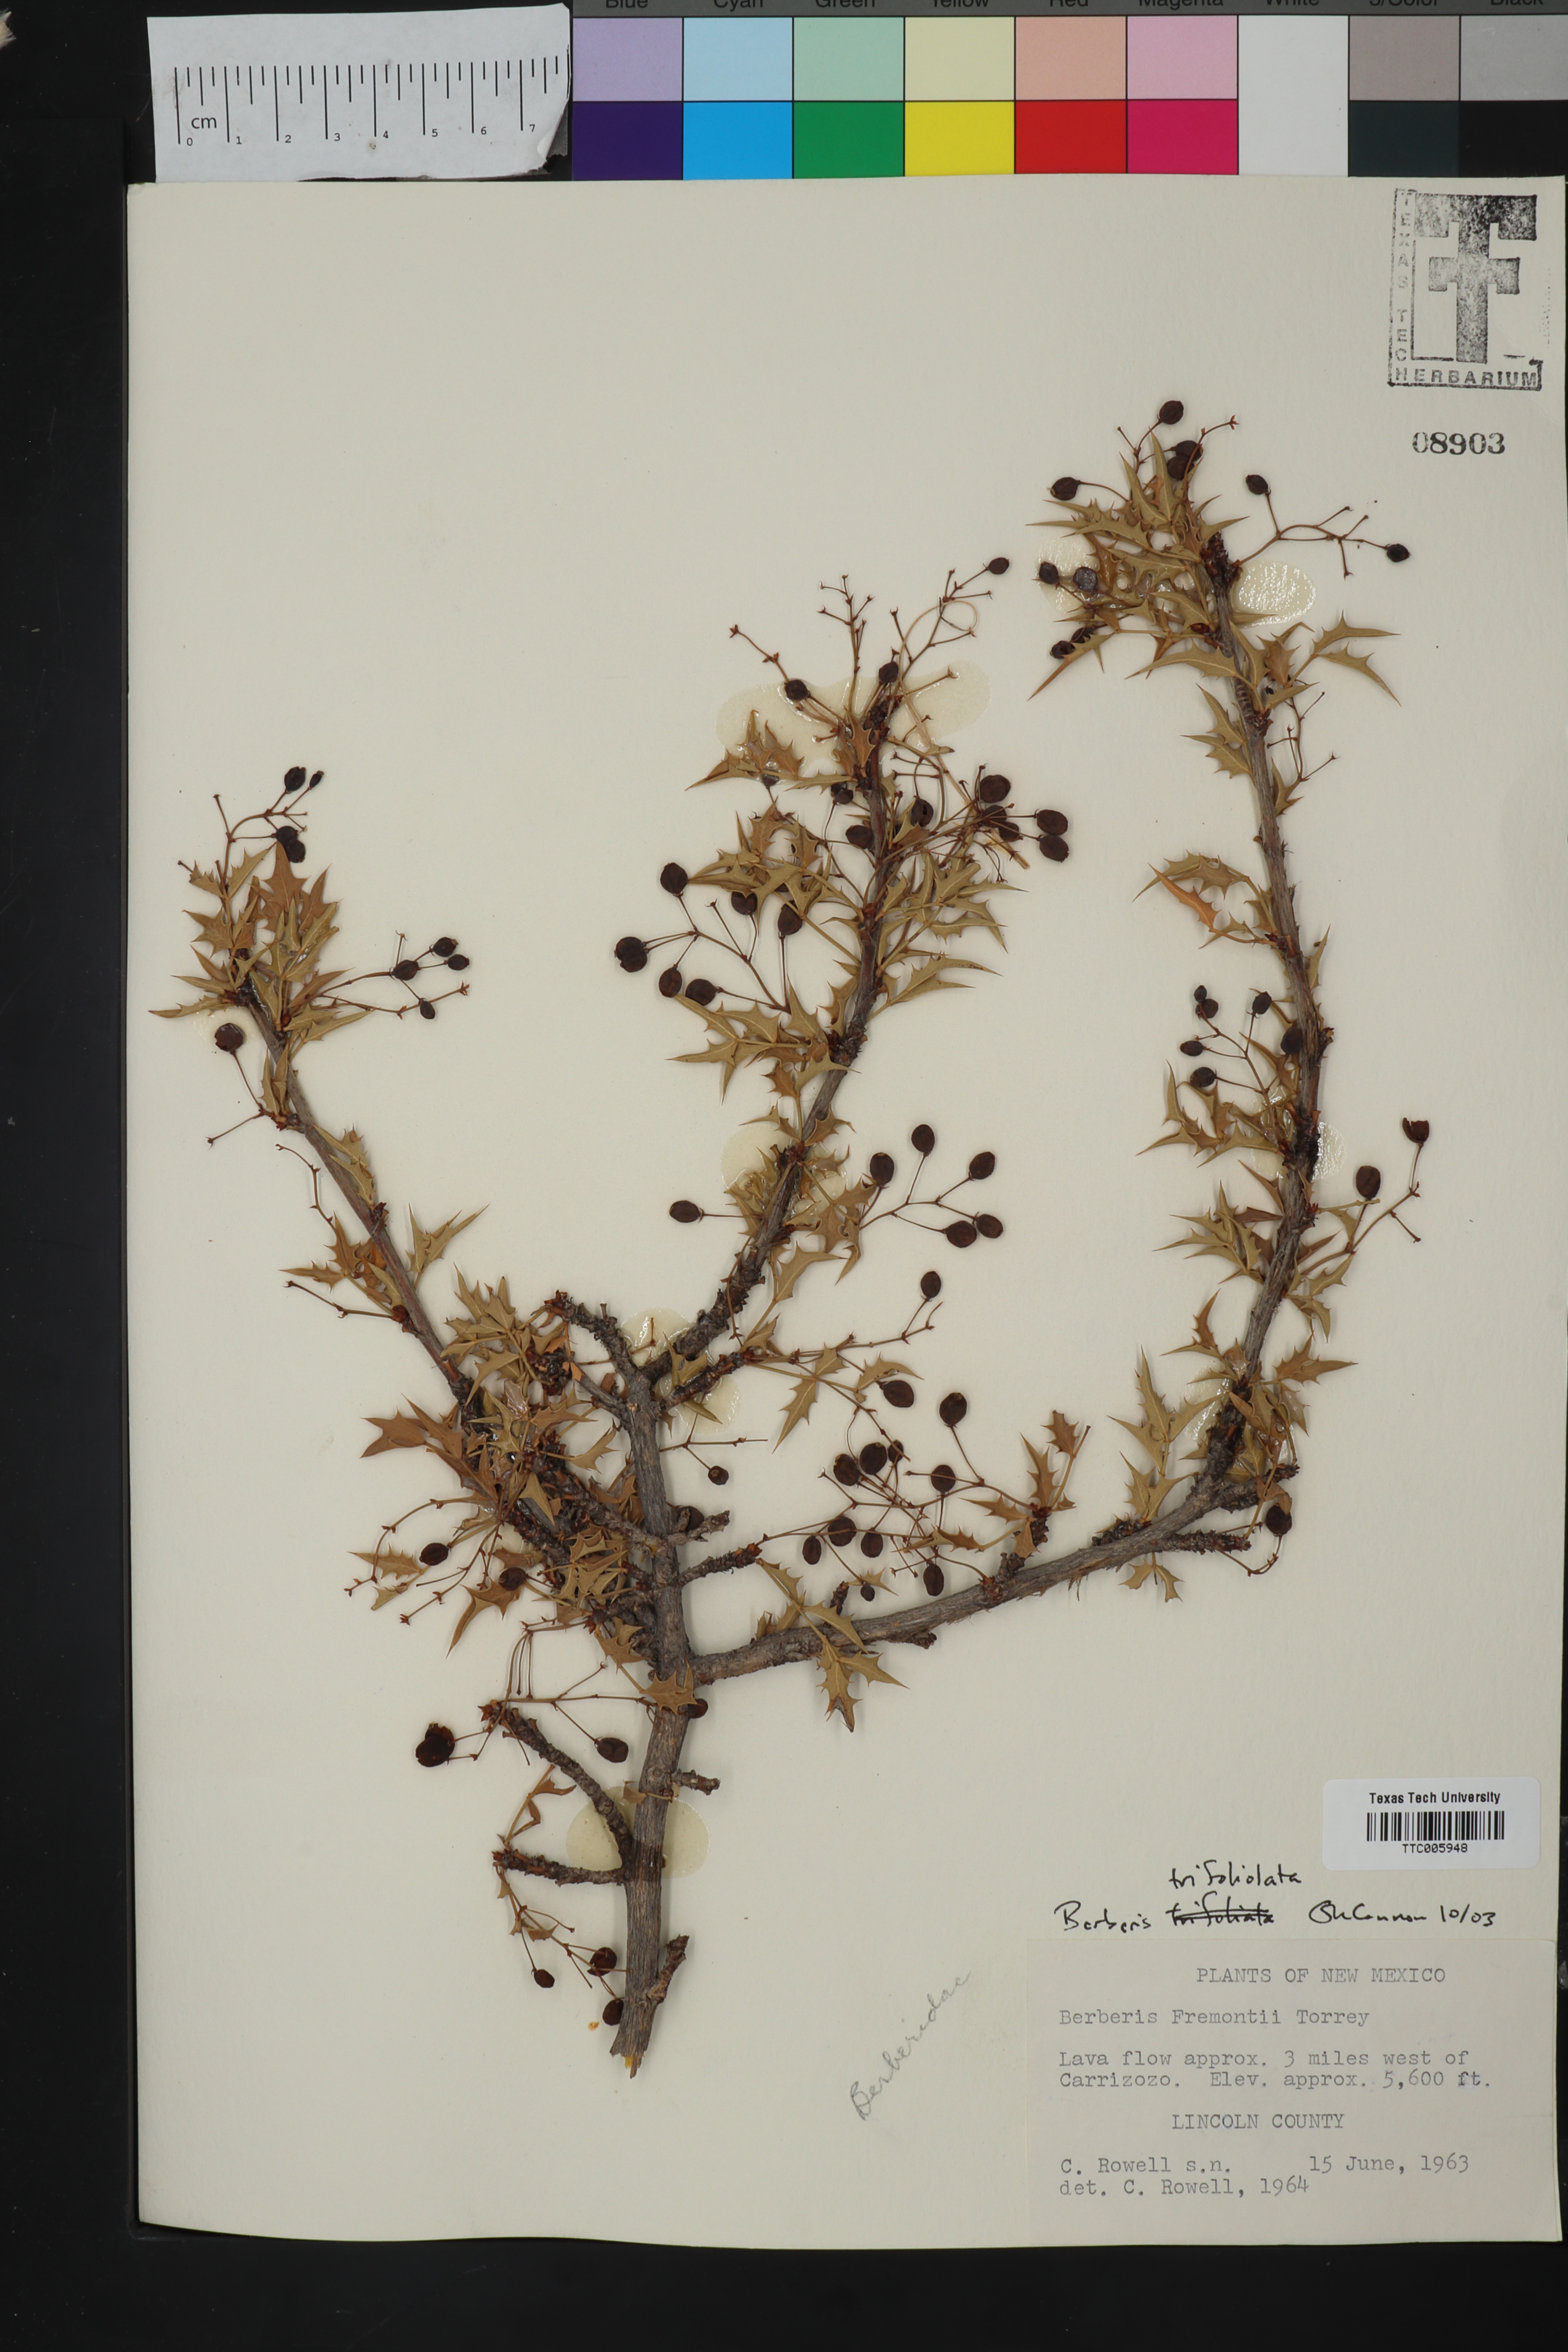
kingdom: Plantae
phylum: Tracheophyta
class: Magnoliopsida
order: Ranunculales
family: Berberidaceae
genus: Alloberberis
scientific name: Alloberberis trifoliolata
